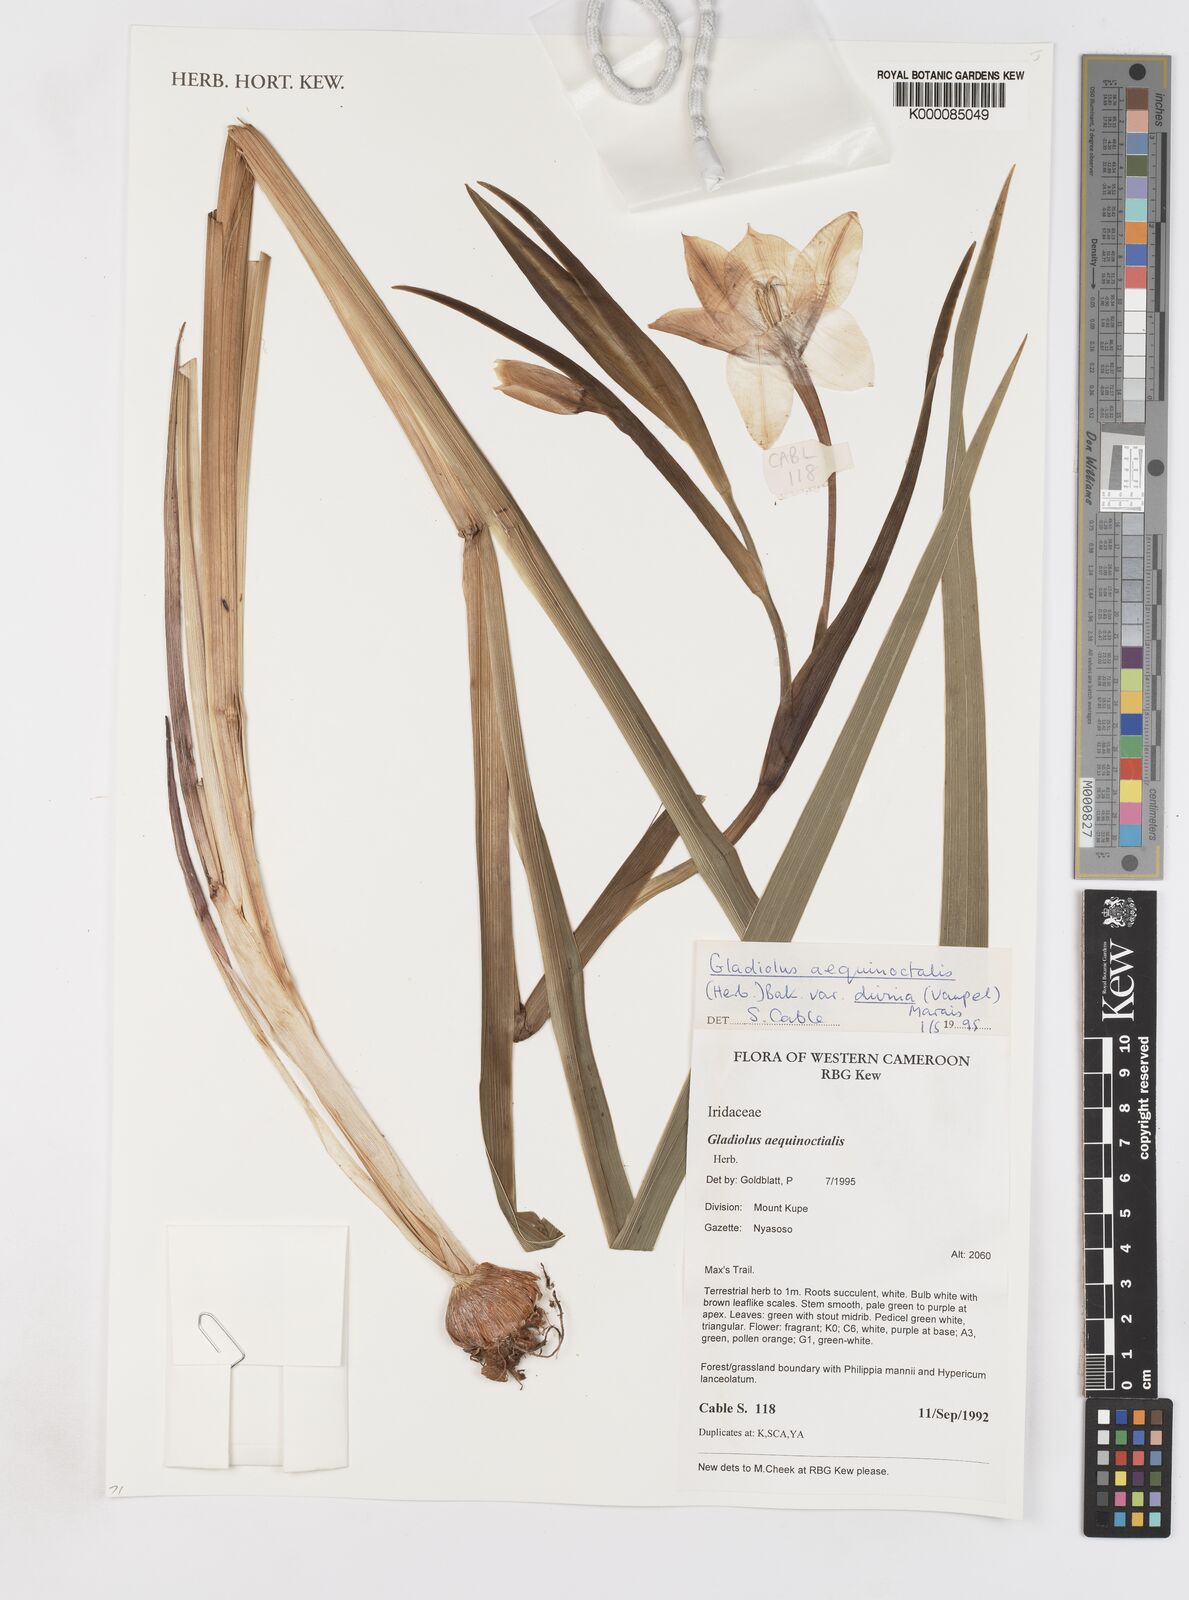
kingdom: Plantae
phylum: Tracheophyta
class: Liliopsida
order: Asparagales
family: Iridaceae
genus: Gladiolus
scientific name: Gladiolus aequinoctialis
